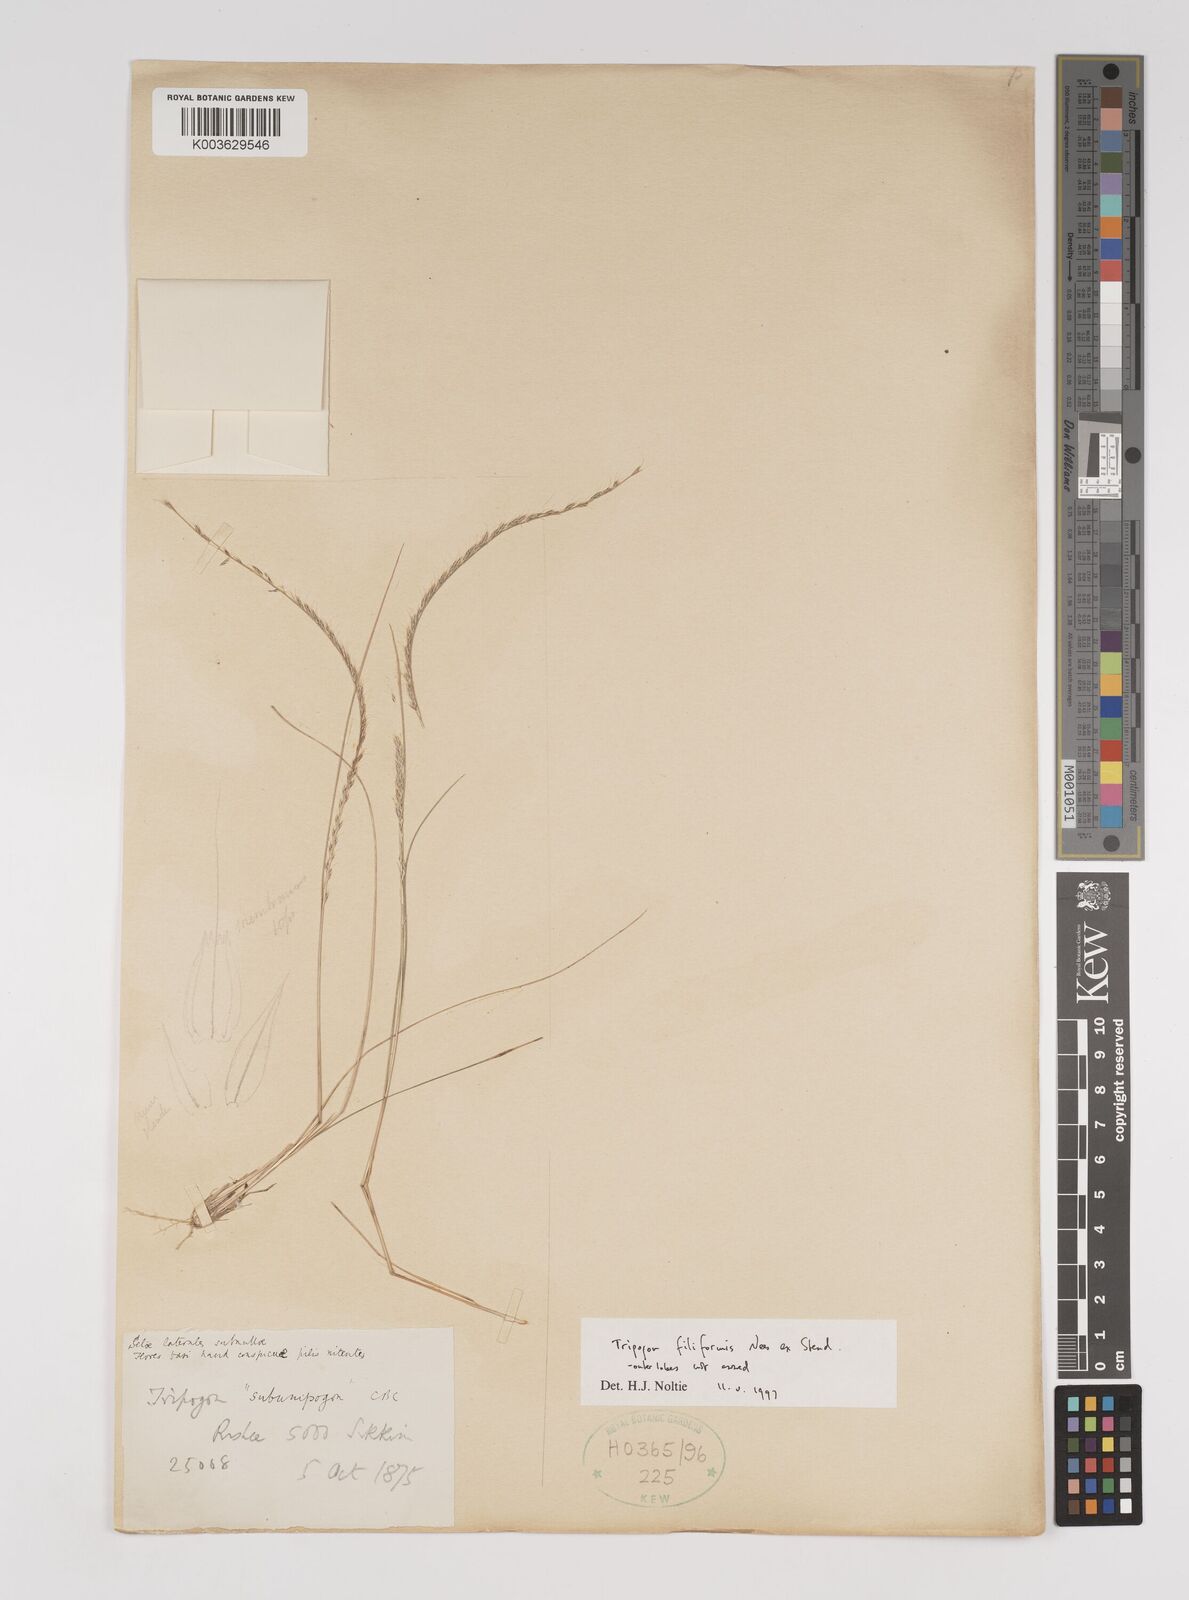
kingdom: Plantae
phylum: Tracheophyta
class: Liliopsida
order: Poales
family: Poaceae
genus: Tripogon
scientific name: Tripogon filiformis
